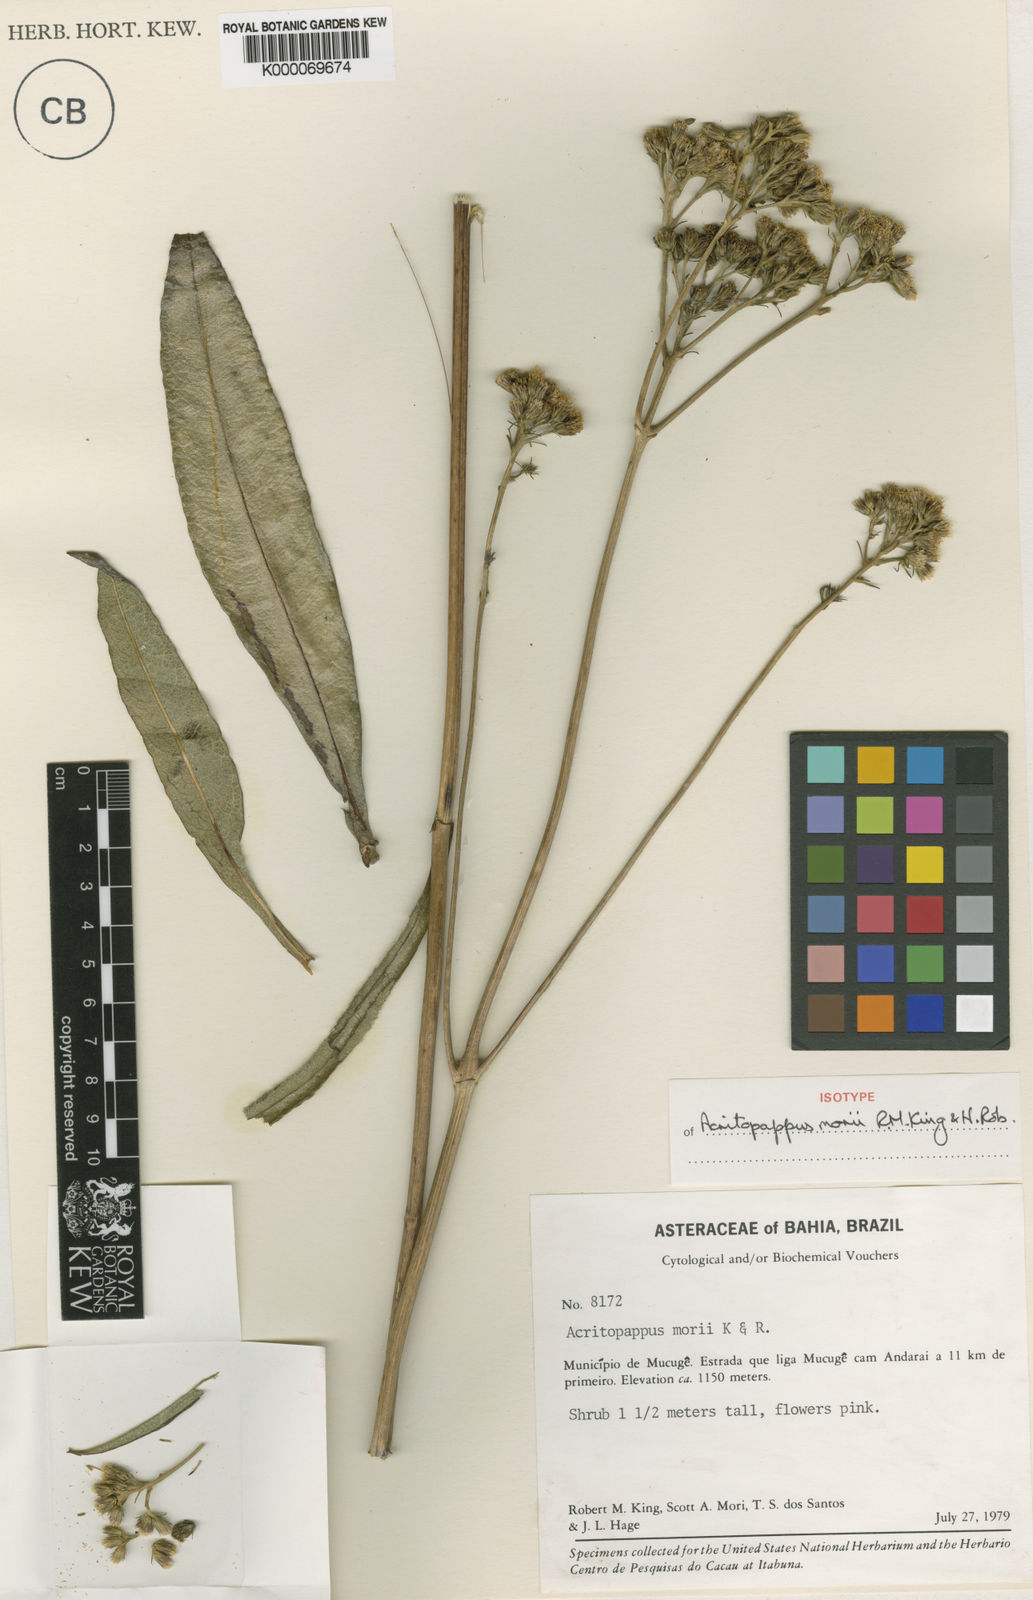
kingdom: Plantae
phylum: Tracheophyta
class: Magnoliopsida
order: Asterales
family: Asteraceae
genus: Acritopappus
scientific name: Acritopappus morii
